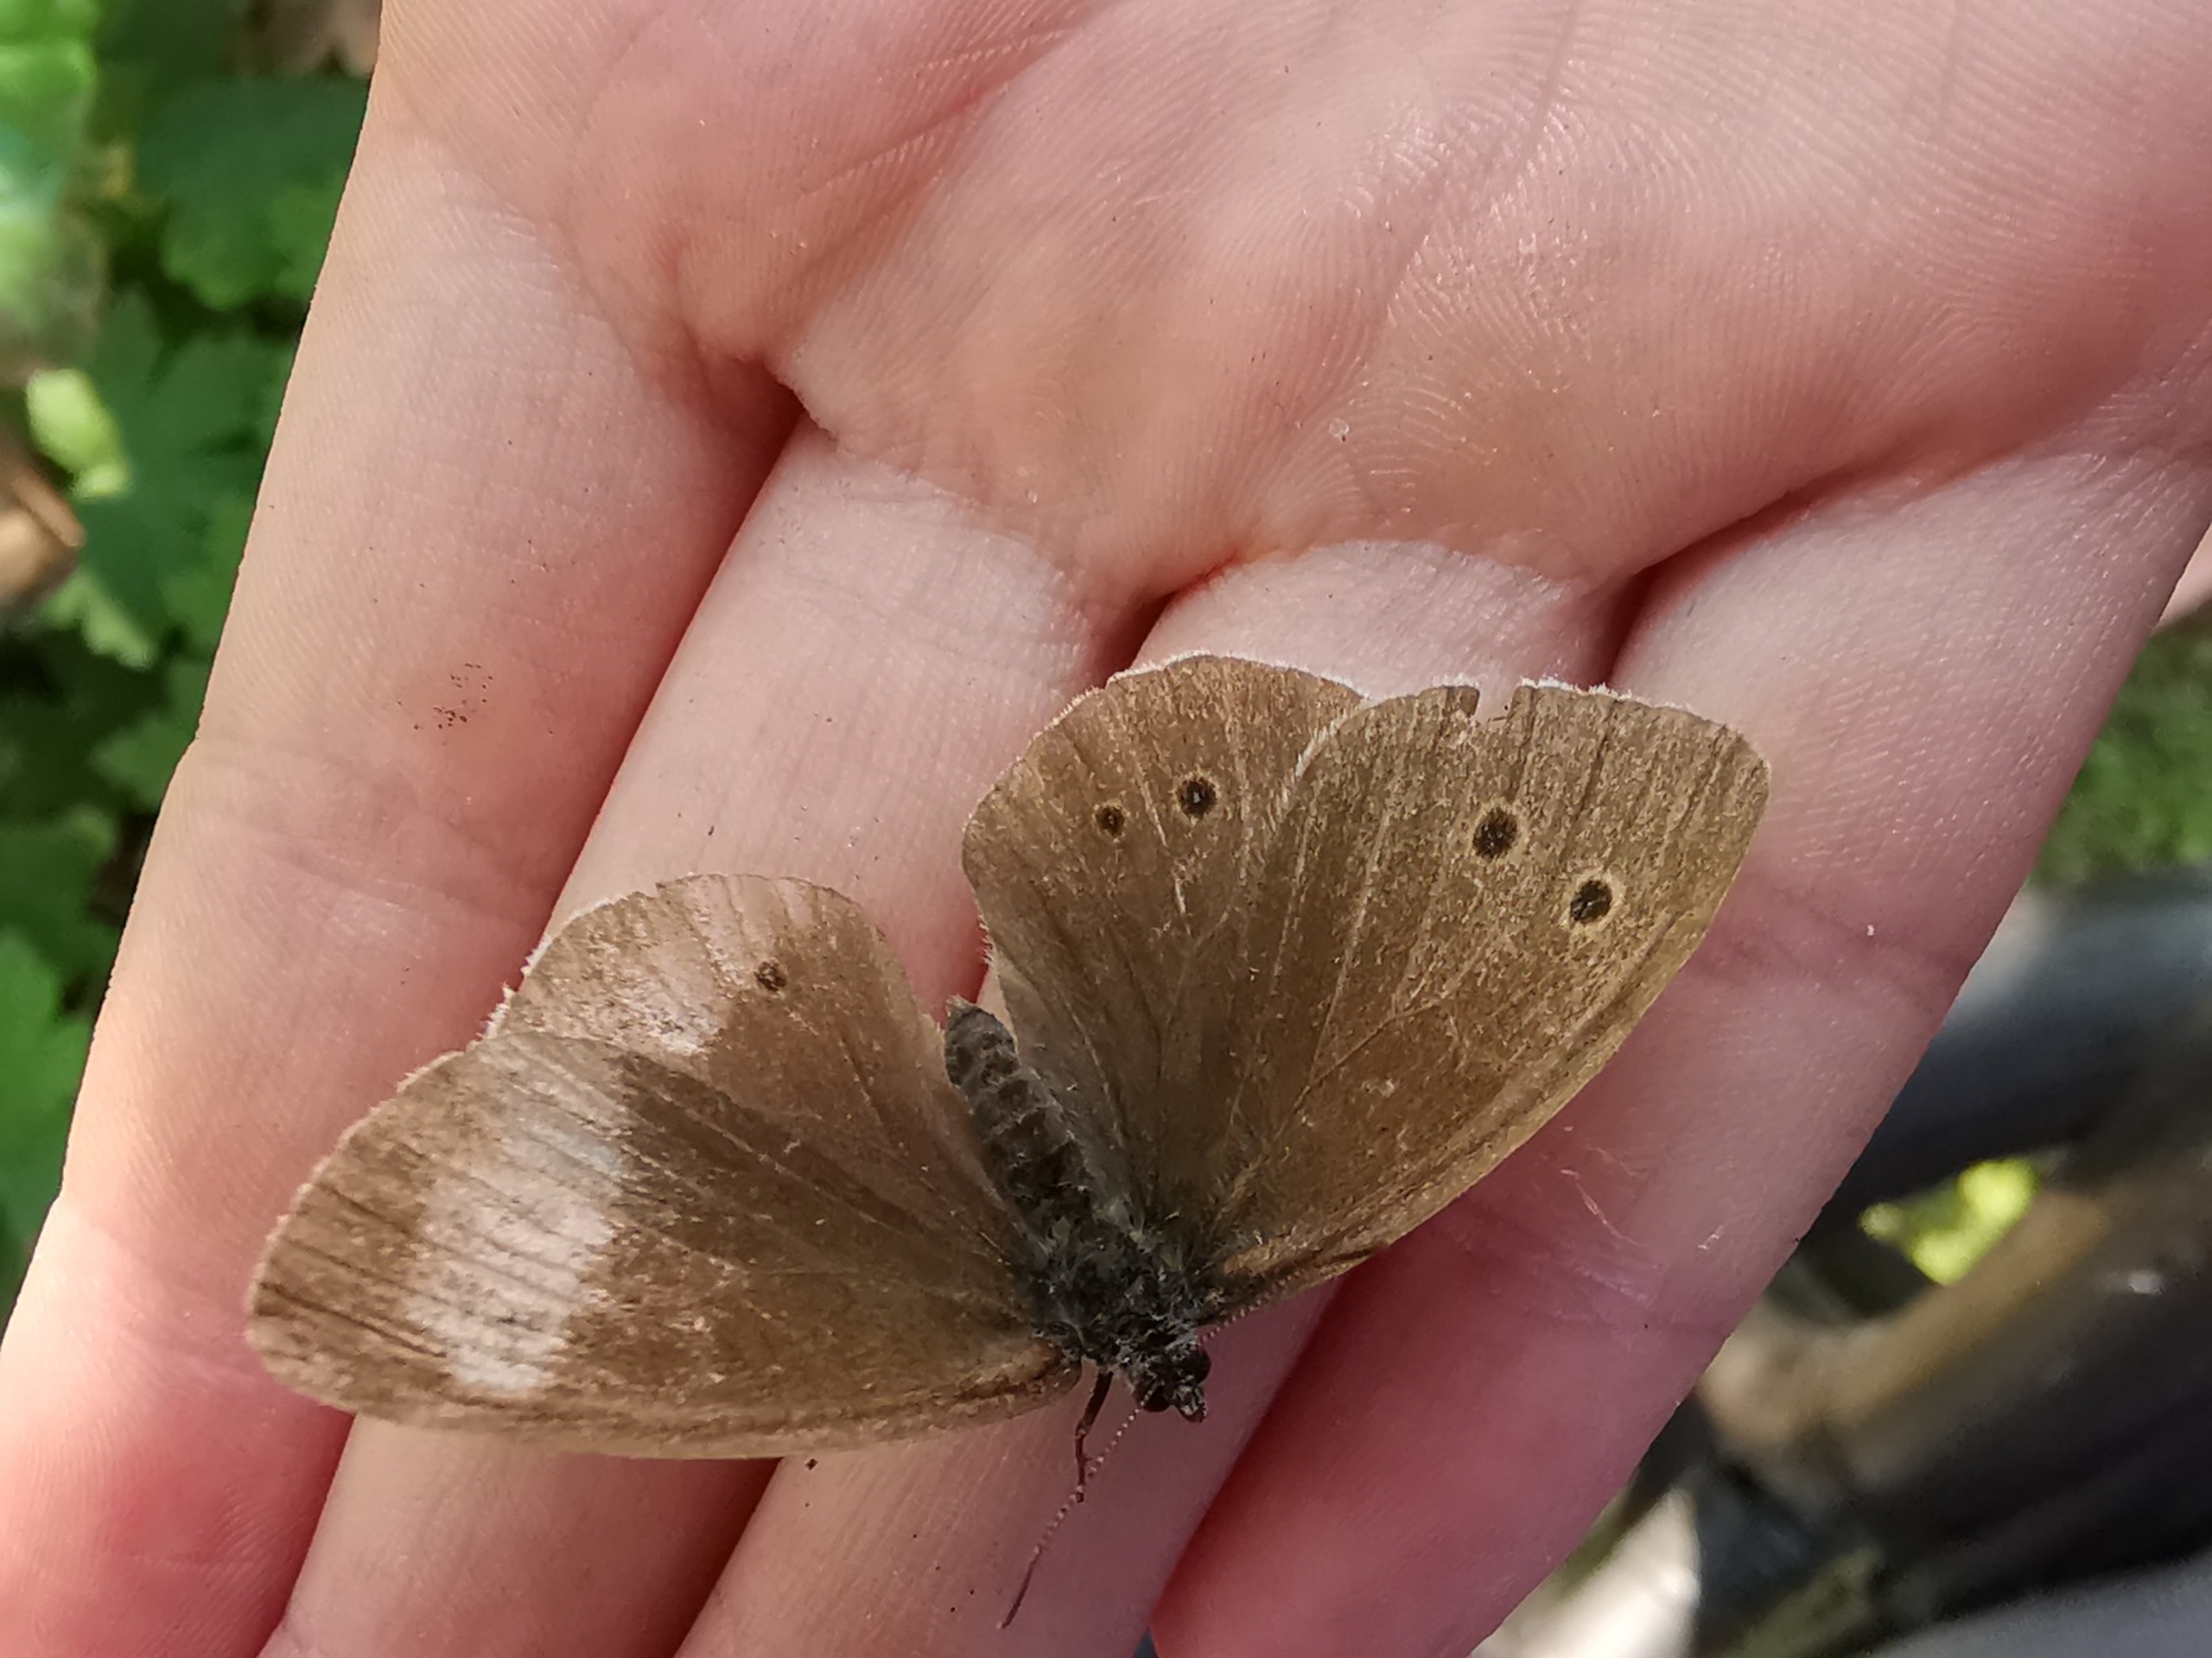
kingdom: Animalia
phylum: Arthropoda
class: Insecta
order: Lepidoptera
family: Nymphalidae
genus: Aphantopus
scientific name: Aphantopus hyperantus
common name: Engrandøje
